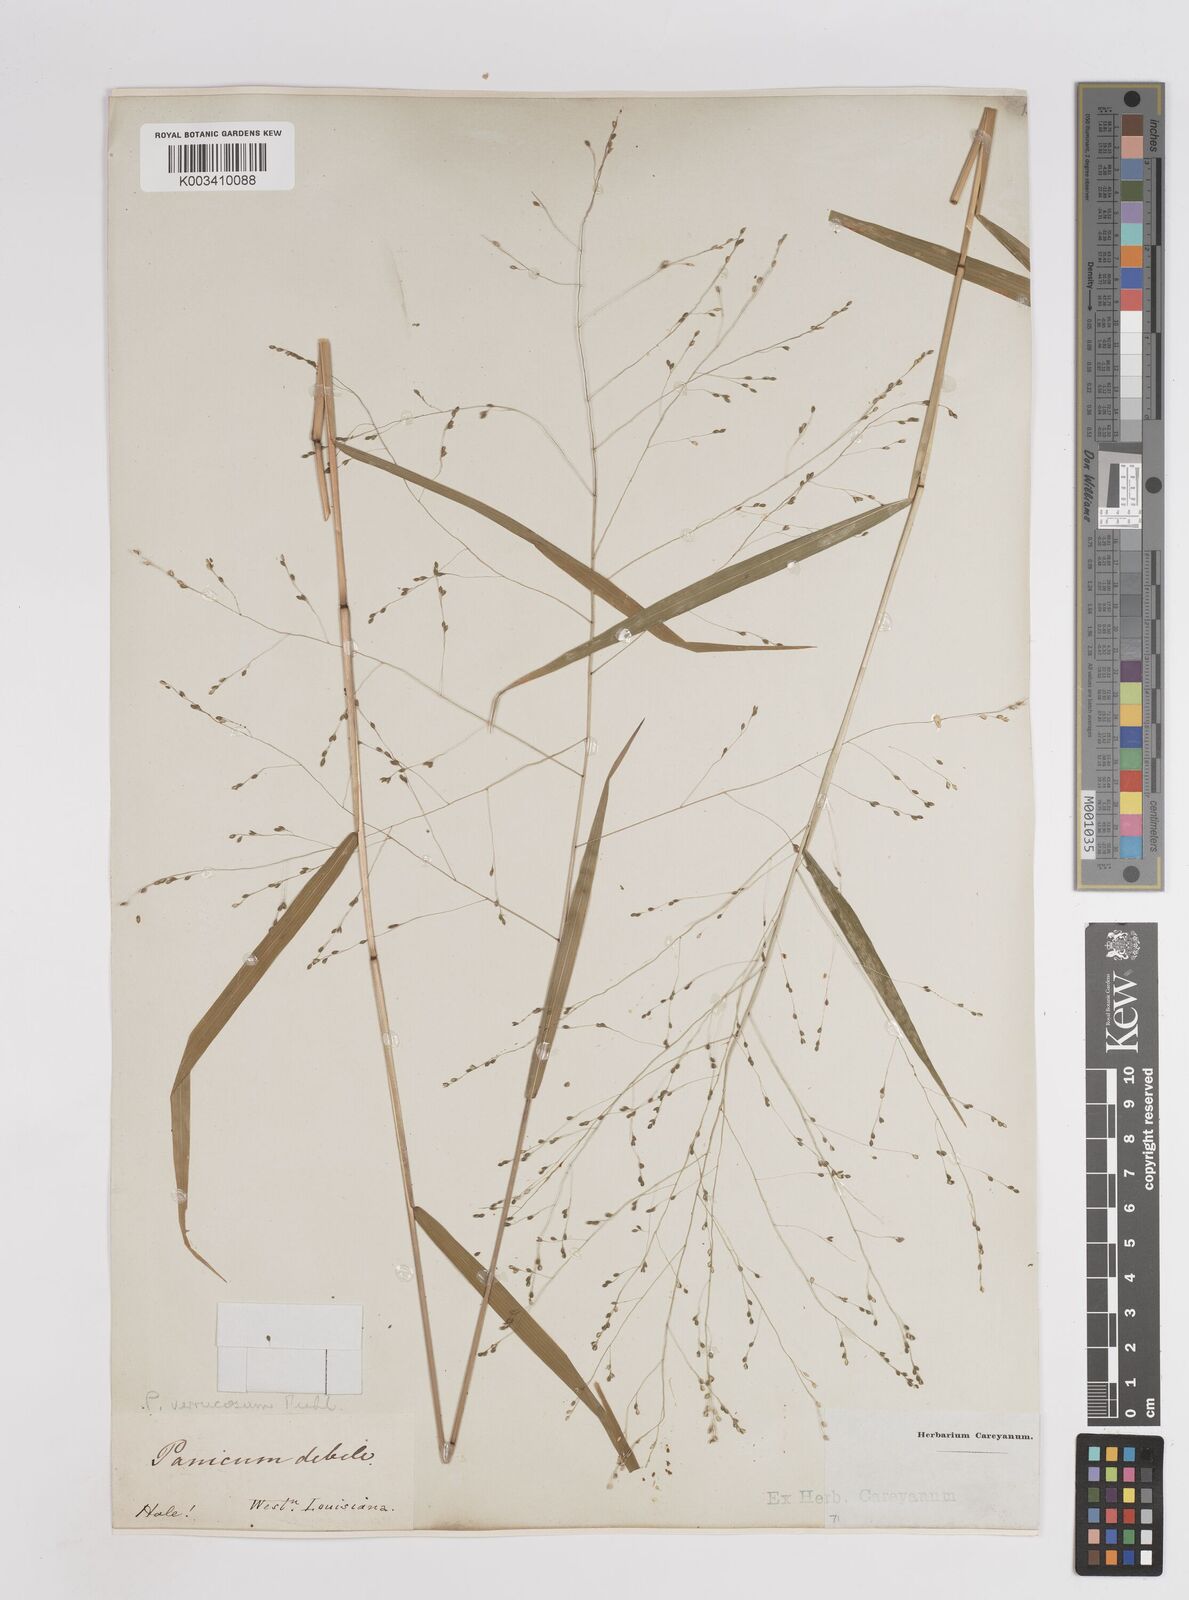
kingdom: Plantae
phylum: Tracheophyta
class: Liliopsida
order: Poales
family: Poaceae
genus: Kellochloa
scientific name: Kellochloa verrucosa
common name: Warty panic grass
